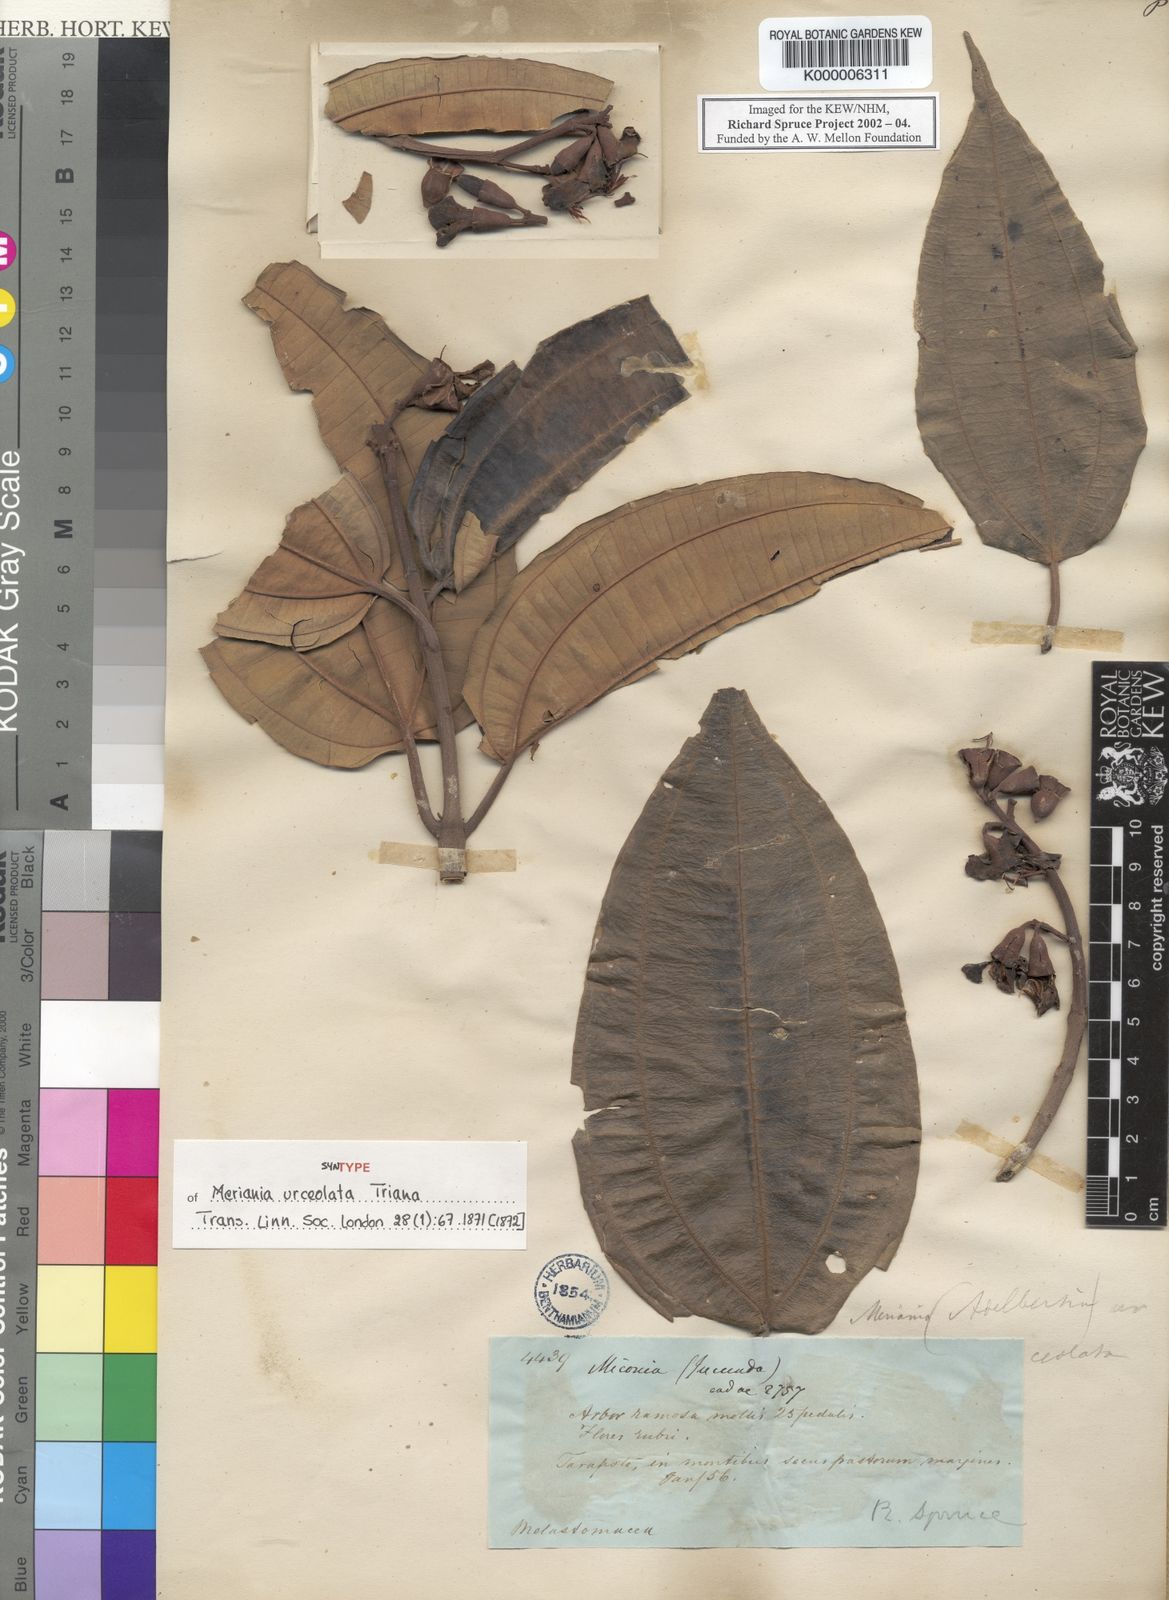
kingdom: Plantae
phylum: Tracheophyta
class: Magnoliopsida
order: Myrtales
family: Melastomataceae
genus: Meriania
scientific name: Meriania urceolata
